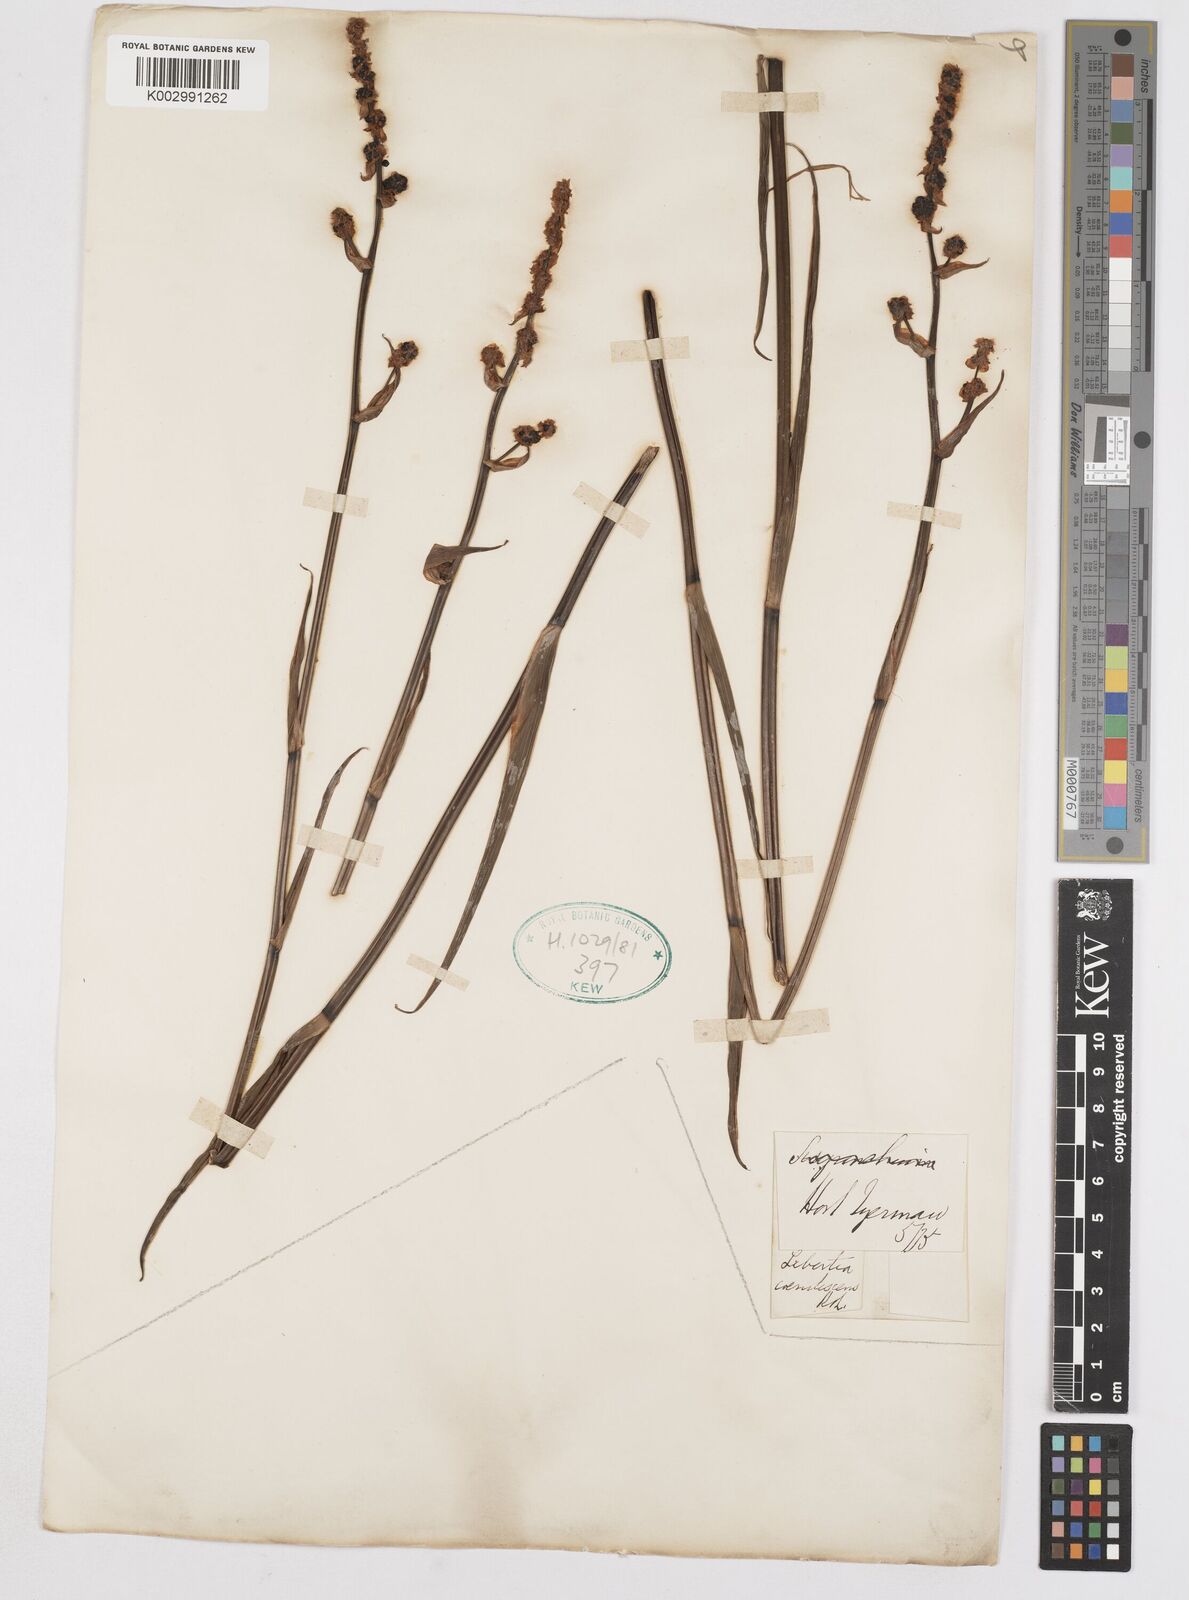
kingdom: Plantae
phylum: Tracheophyta
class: Liliopsida
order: Asparagales
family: Iridaceae
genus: Libertia
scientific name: Libertia sessiliflora
